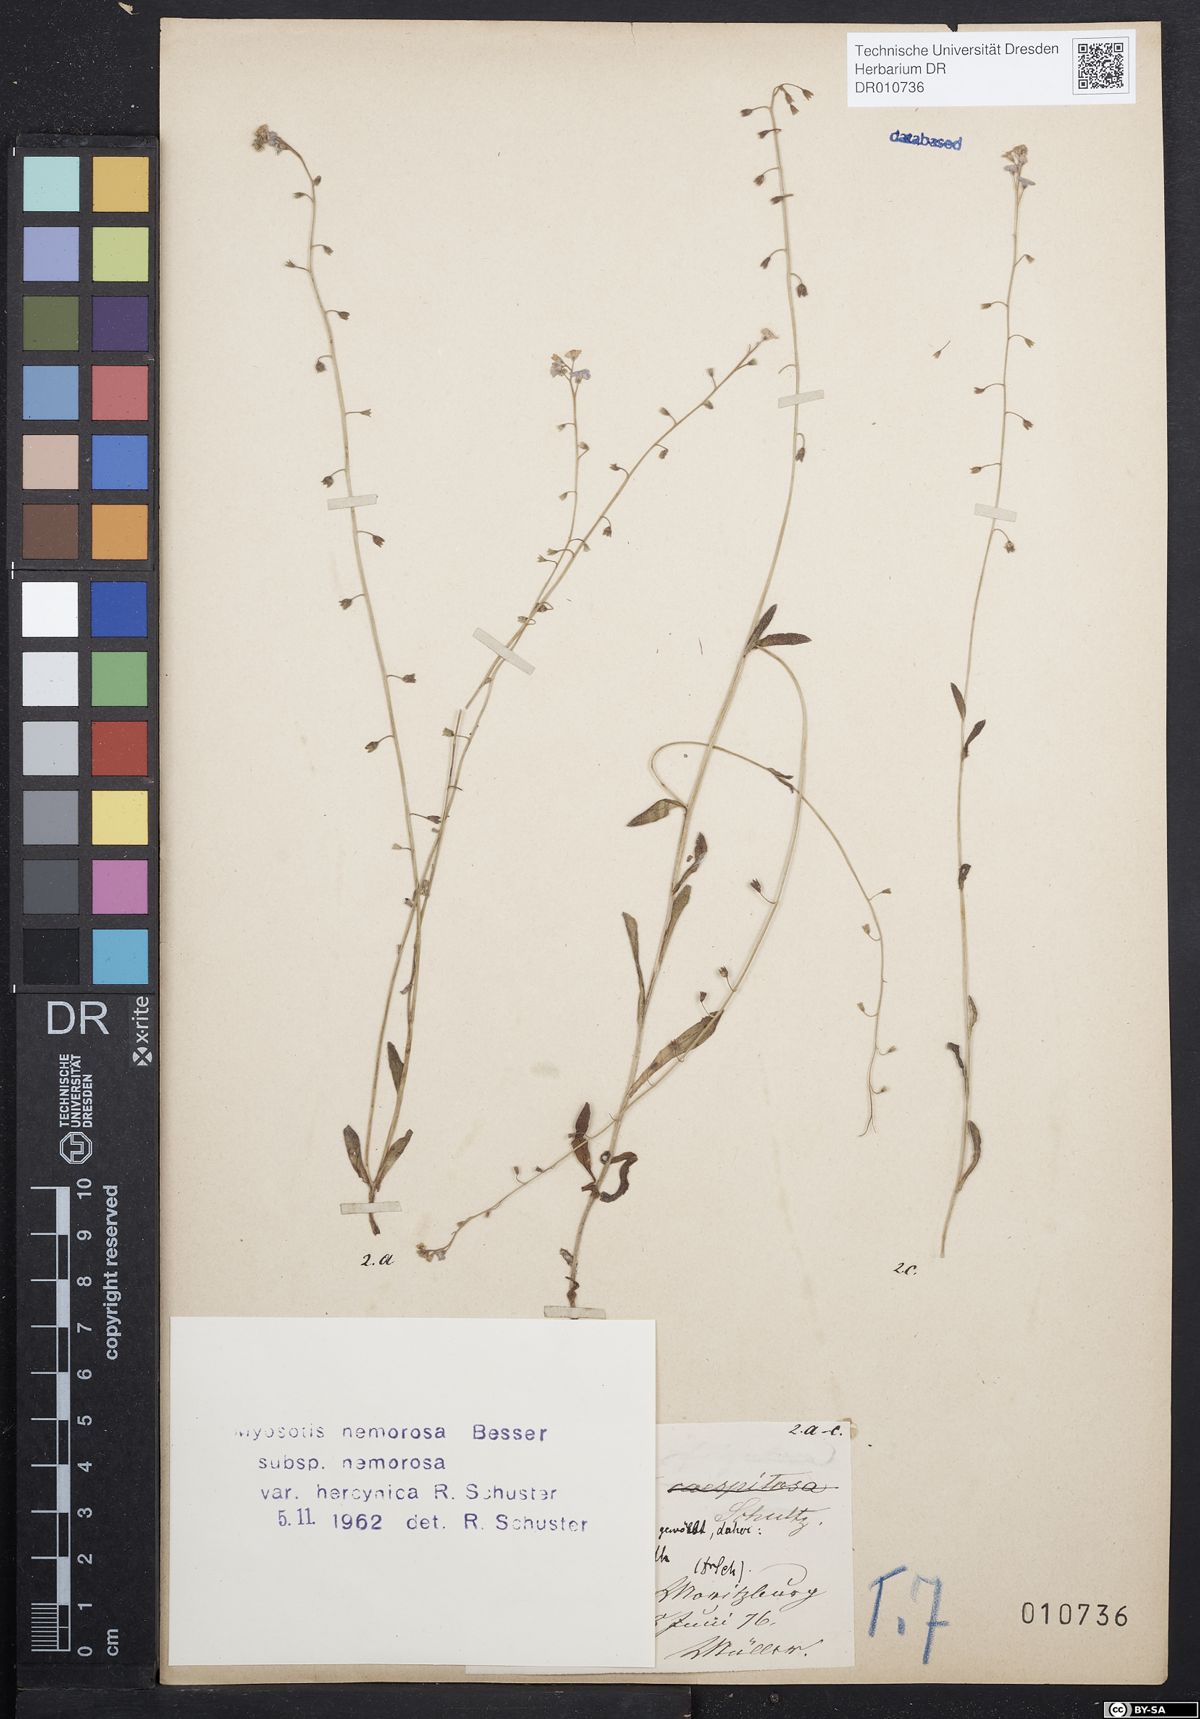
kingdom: Plantae
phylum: Tracheophyta
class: Magnoliopsida
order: Boraginales
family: Boraginaceae
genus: Myosotis
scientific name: Myosotis nemorosa
